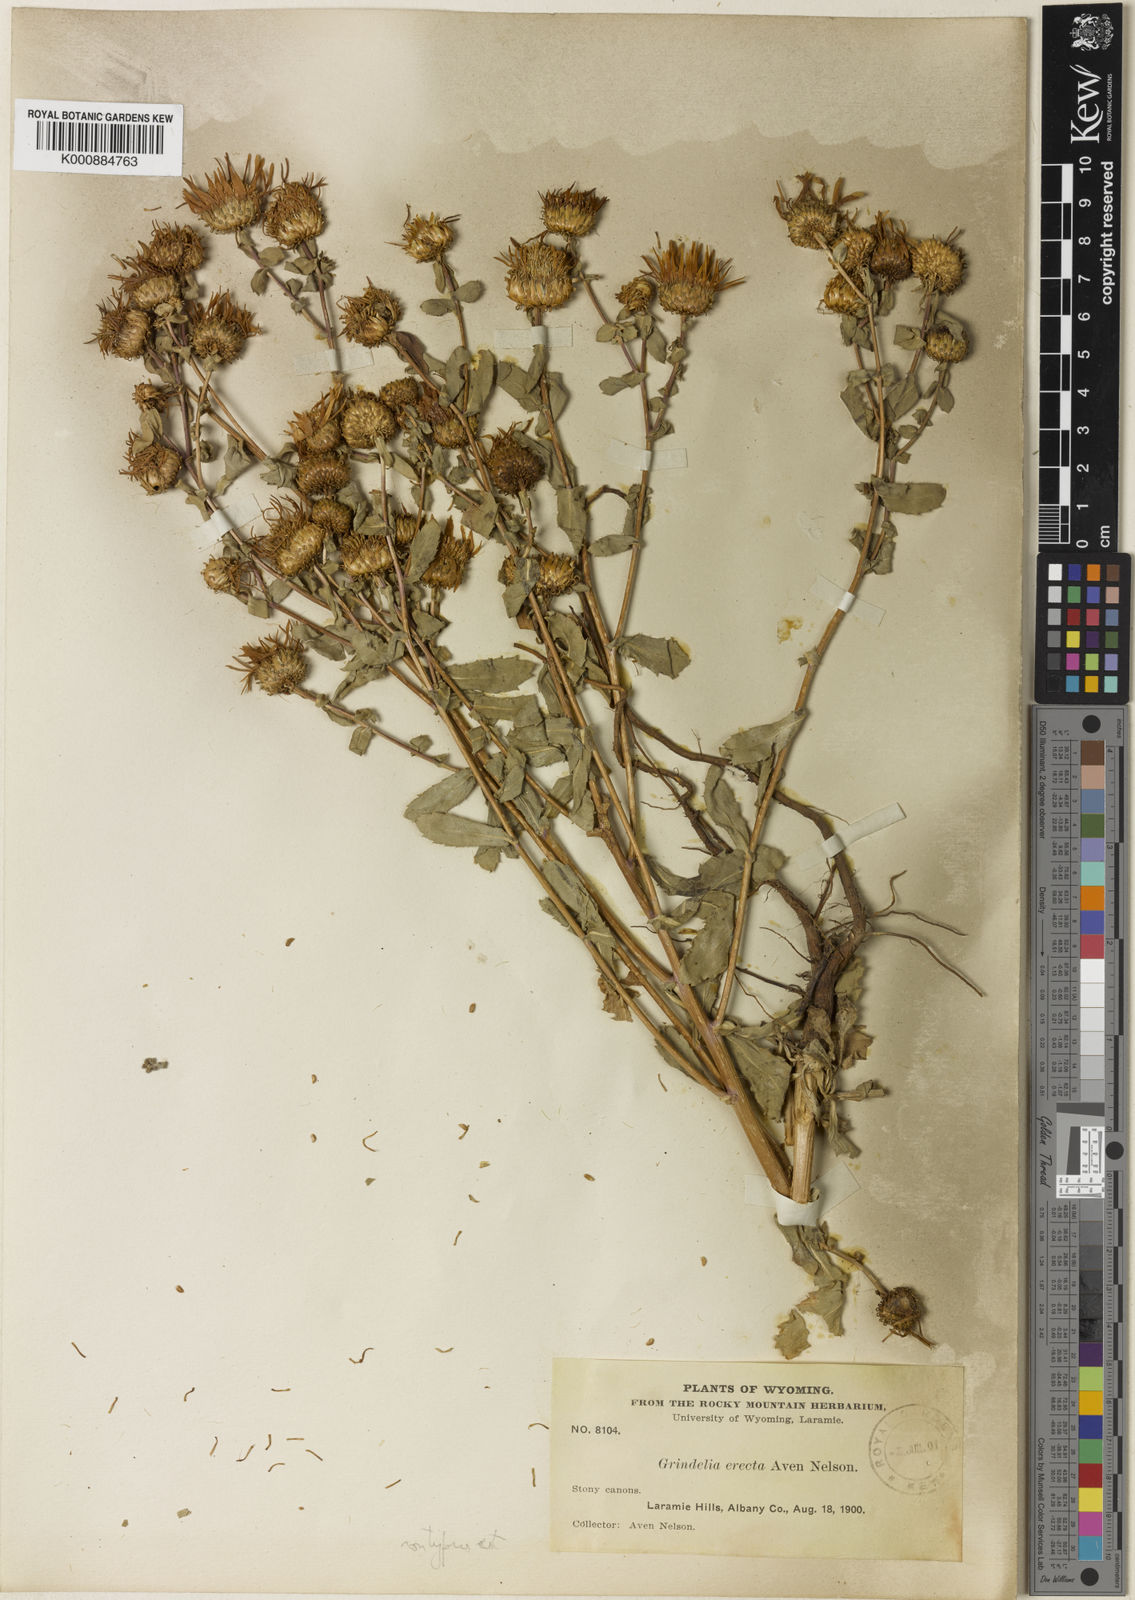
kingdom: Plantae
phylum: Tracheophyta
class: Magnoliopsida
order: Asterales
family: Asteraceae
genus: Grindelia
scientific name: Grindelia subalpina
